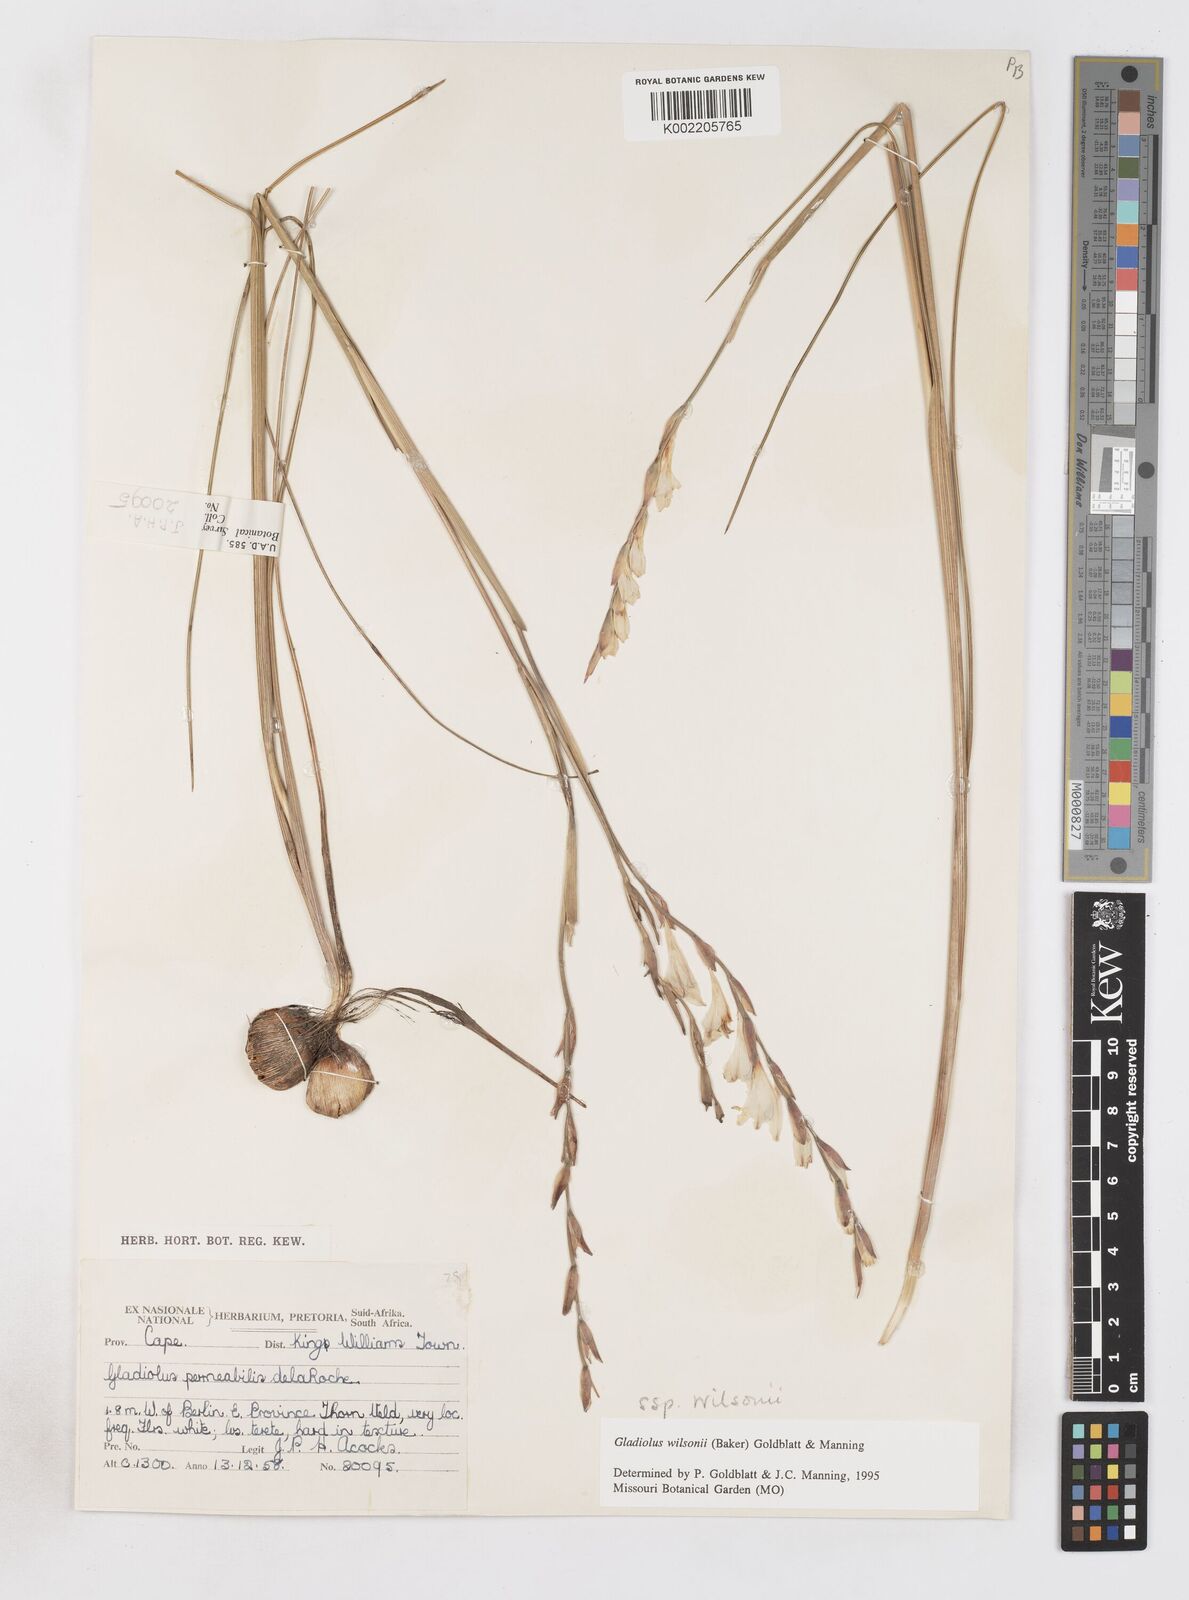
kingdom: Plantae
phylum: Tracheophyta
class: Liliopsida
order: Asparagales
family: Iridaceae
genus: Gladiolus
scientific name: Gladiolus wilsonii
